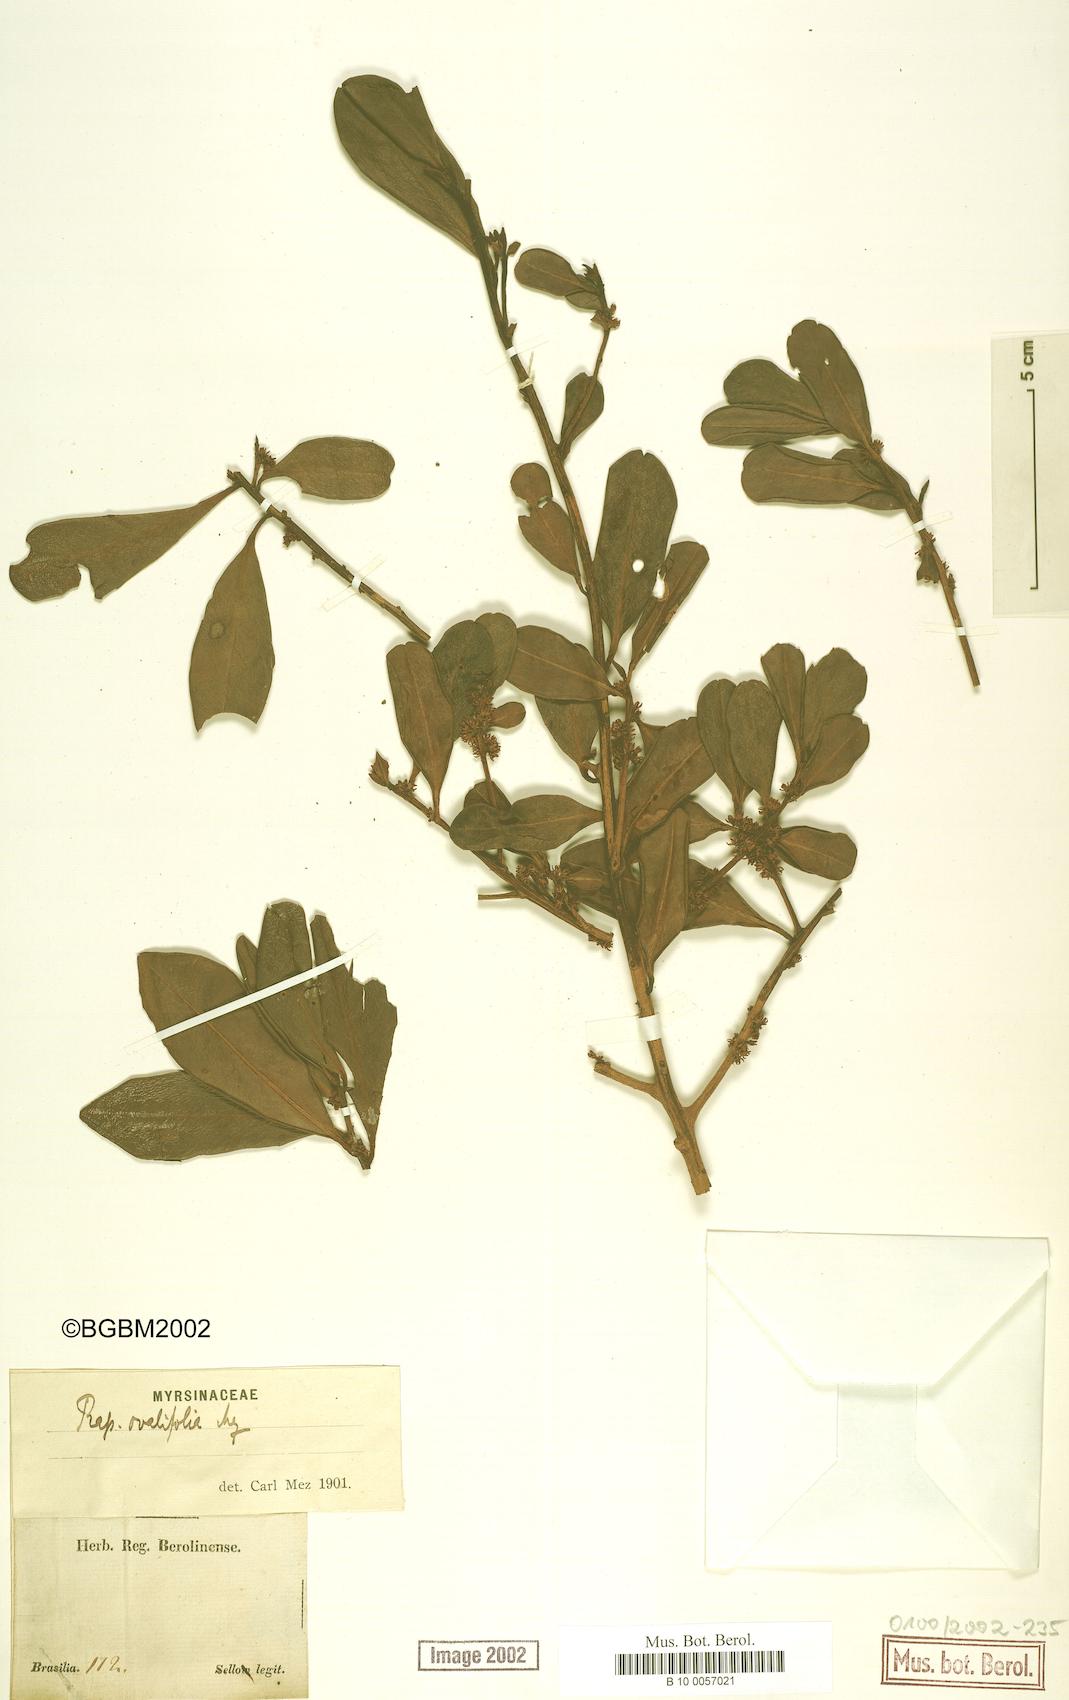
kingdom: Plantae
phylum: Tracheophyta
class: Magnoliopsida
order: Ericales
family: Primulaceae
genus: Myrsine
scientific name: Myrsine miquelii
